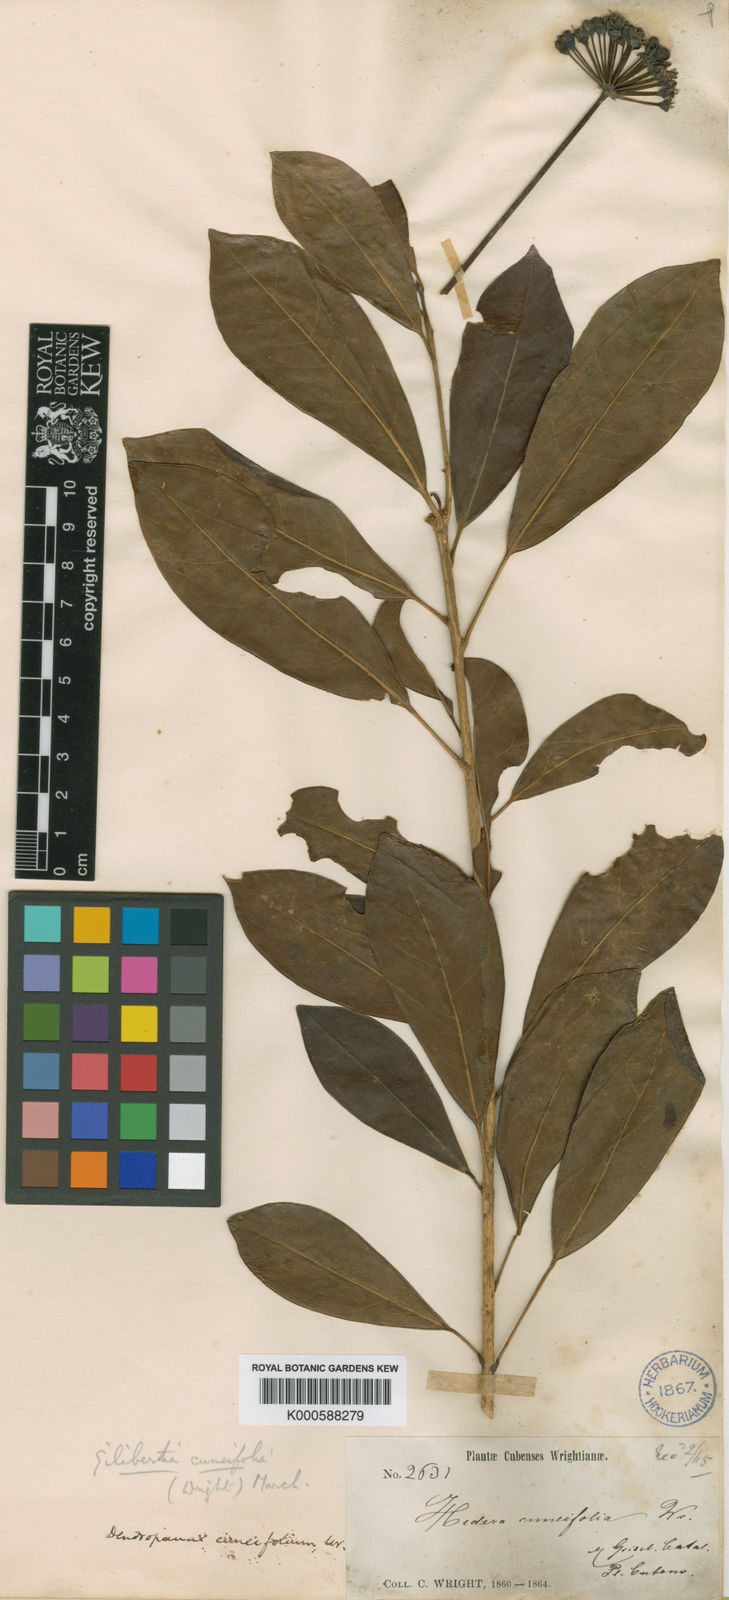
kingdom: Plantae
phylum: Tracheophyta
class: Magnoliopsida
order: Apiales
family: Araliaceae
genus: Dendropanax
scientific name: Dendropanax cuneifolius
